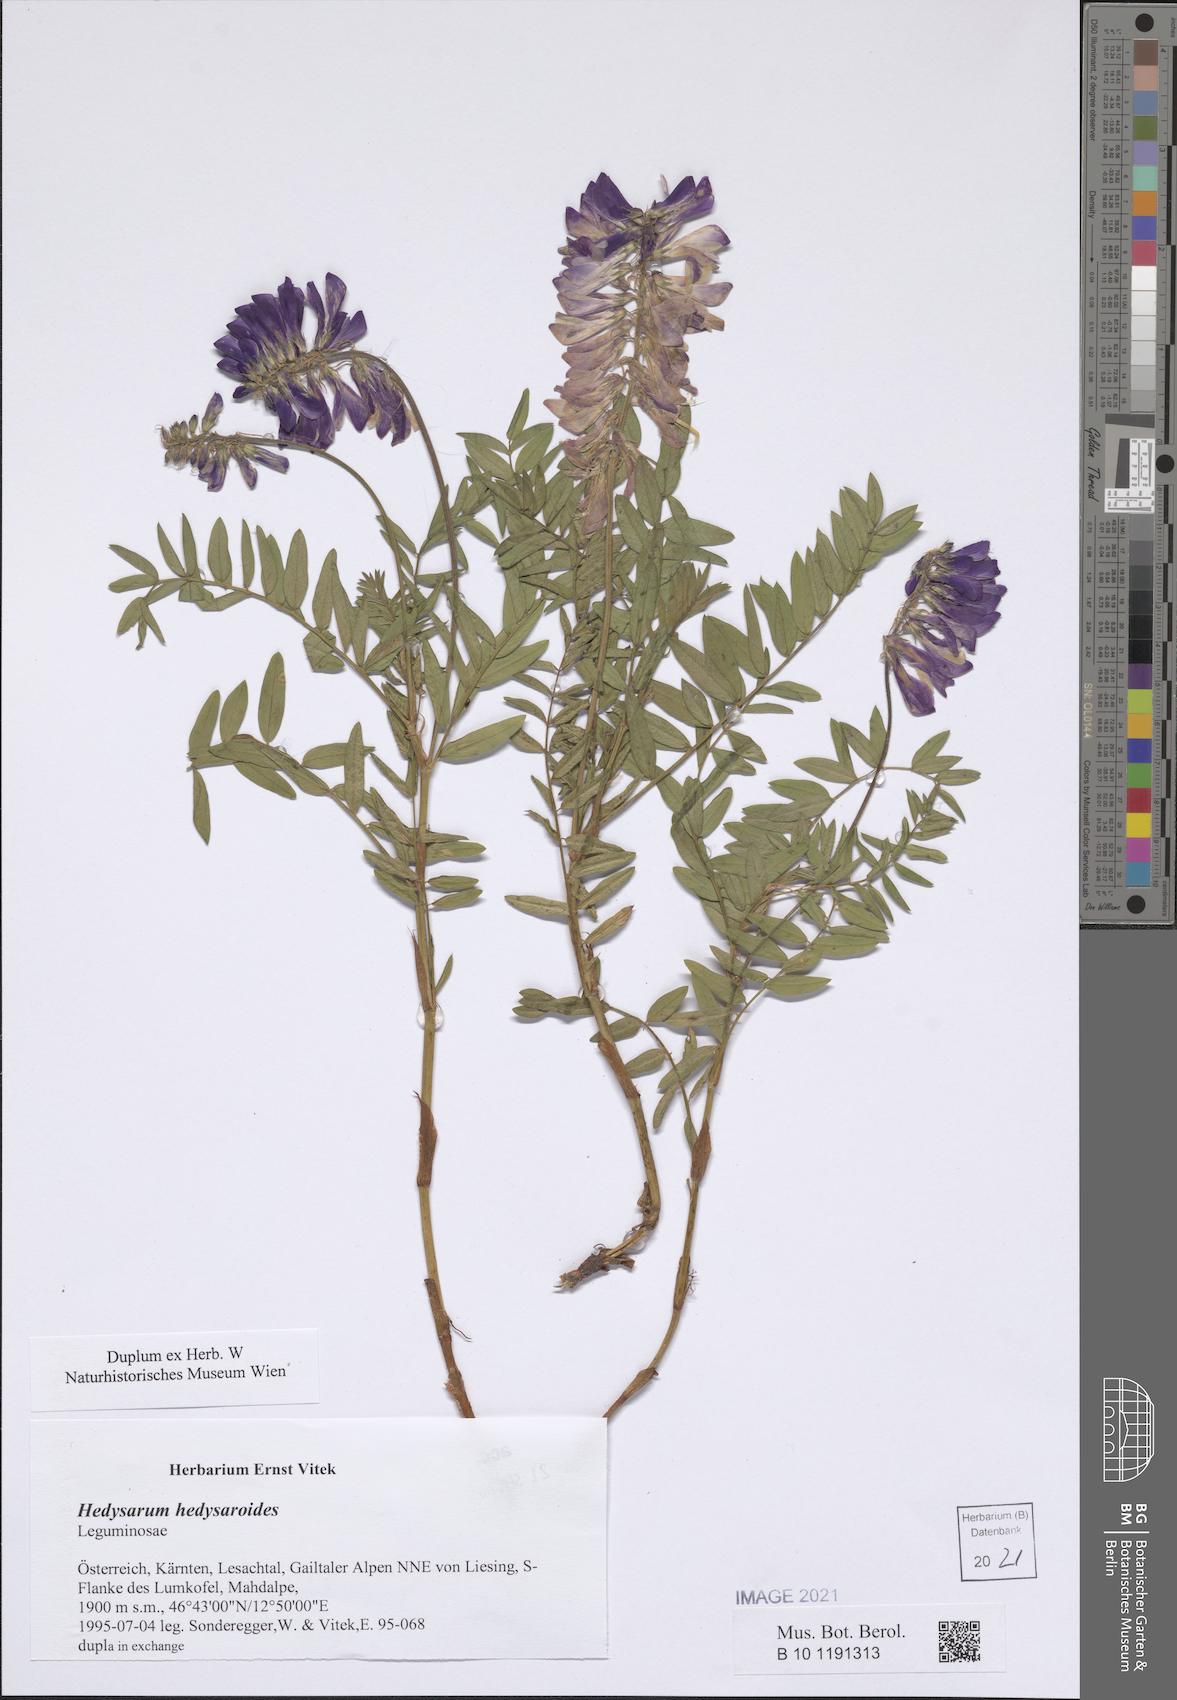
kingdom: Plantae
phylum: Tracheophyta
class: Magnoliopsida
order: Fabales
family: Fabaceae
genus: Hedysarum
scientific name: Hedysarum hedysaroides
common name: Alpine french-honeysuckle
